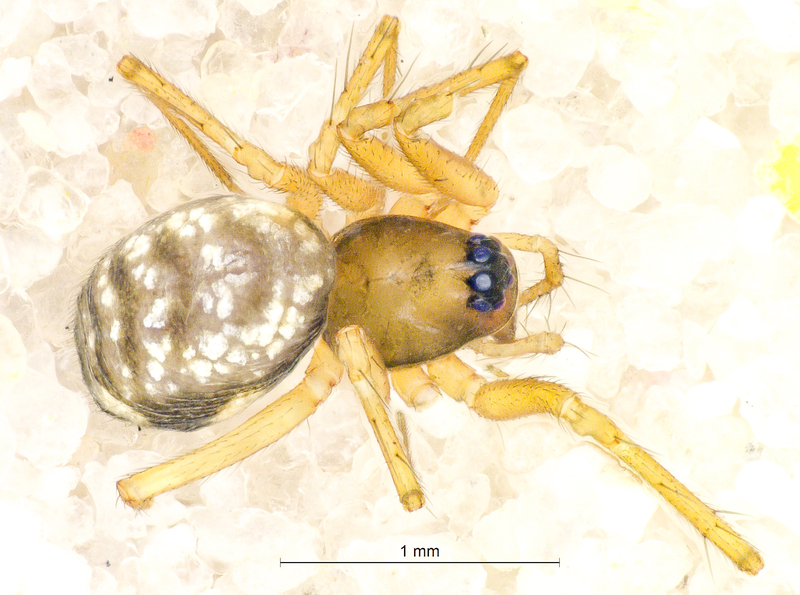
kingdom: Animalia
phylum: Arthropoda
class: Arachnida
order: Araneae
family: Linyphiidae
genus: Tenuiphantes
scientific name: Tenuiphantes mengei
